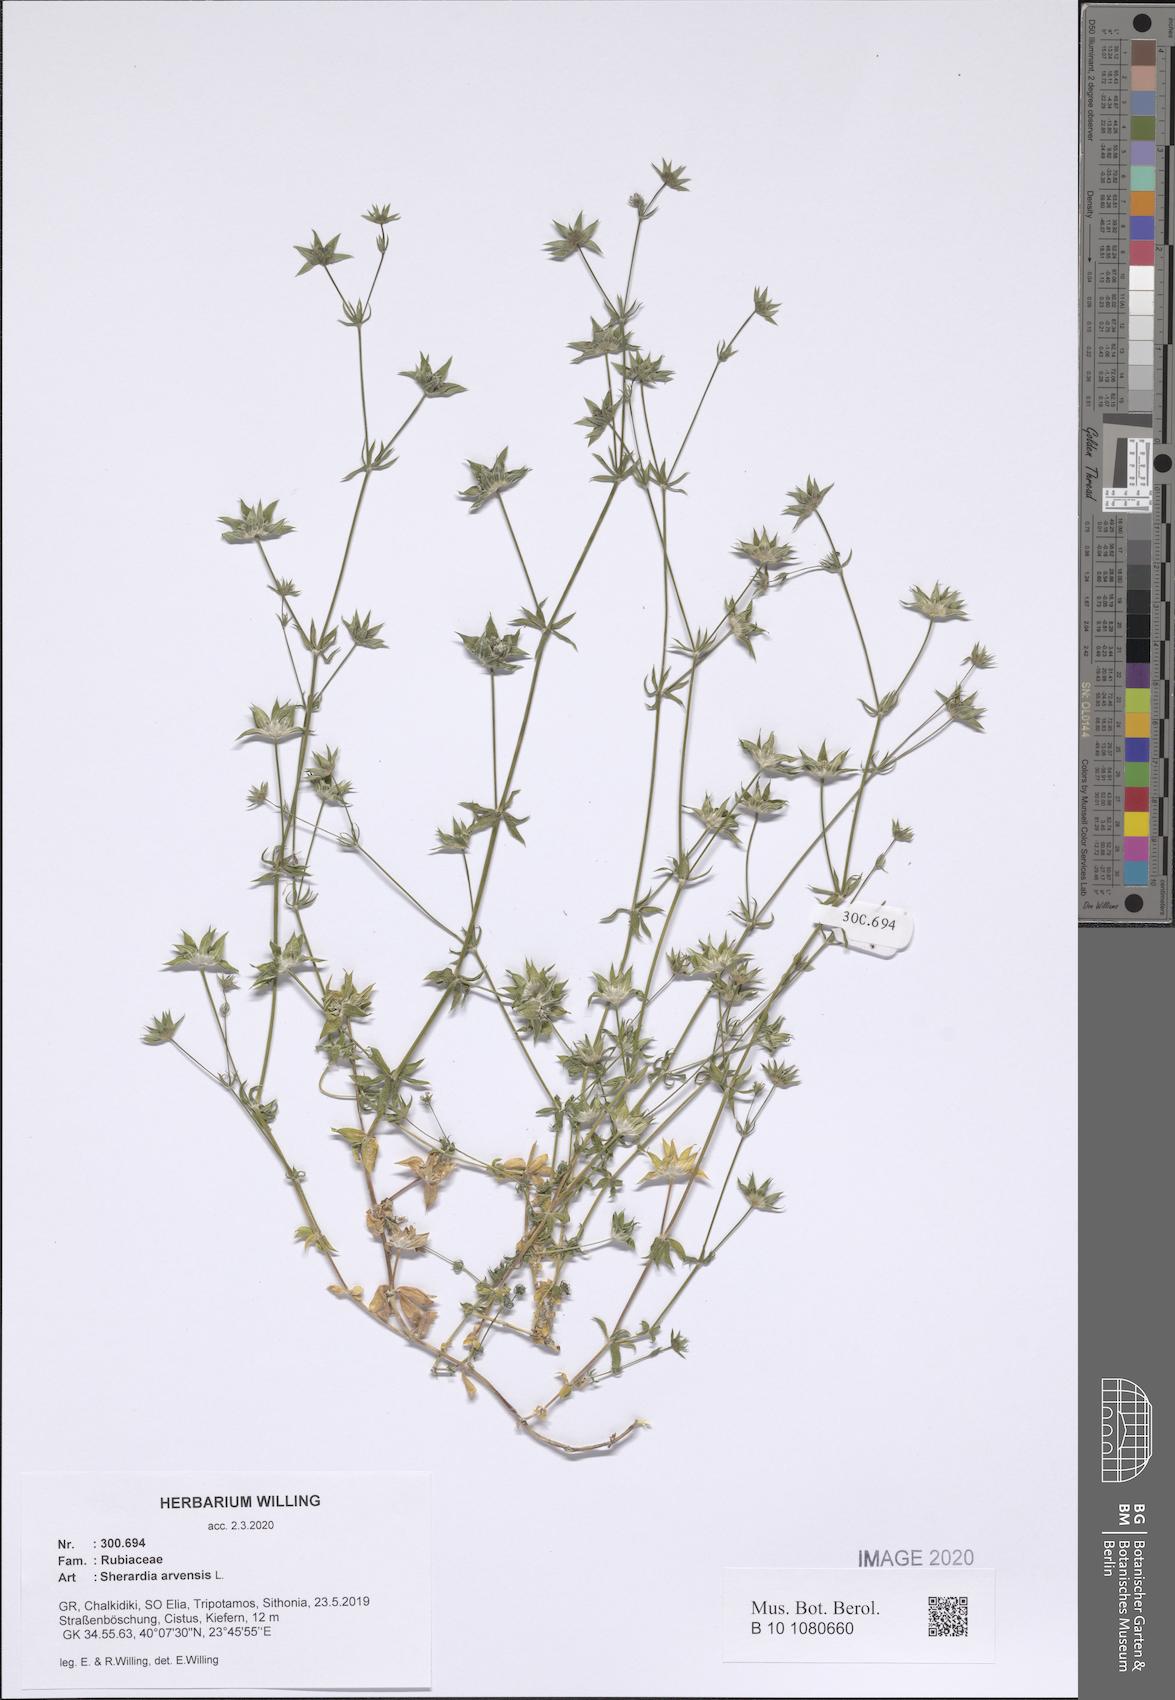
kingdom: Plantae
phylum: Tracheophyta
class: Magnoliopsida
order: Gentianales
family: Rubiaceae
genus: Sherardia
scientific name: Sherardia arvensis
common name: Field madder
